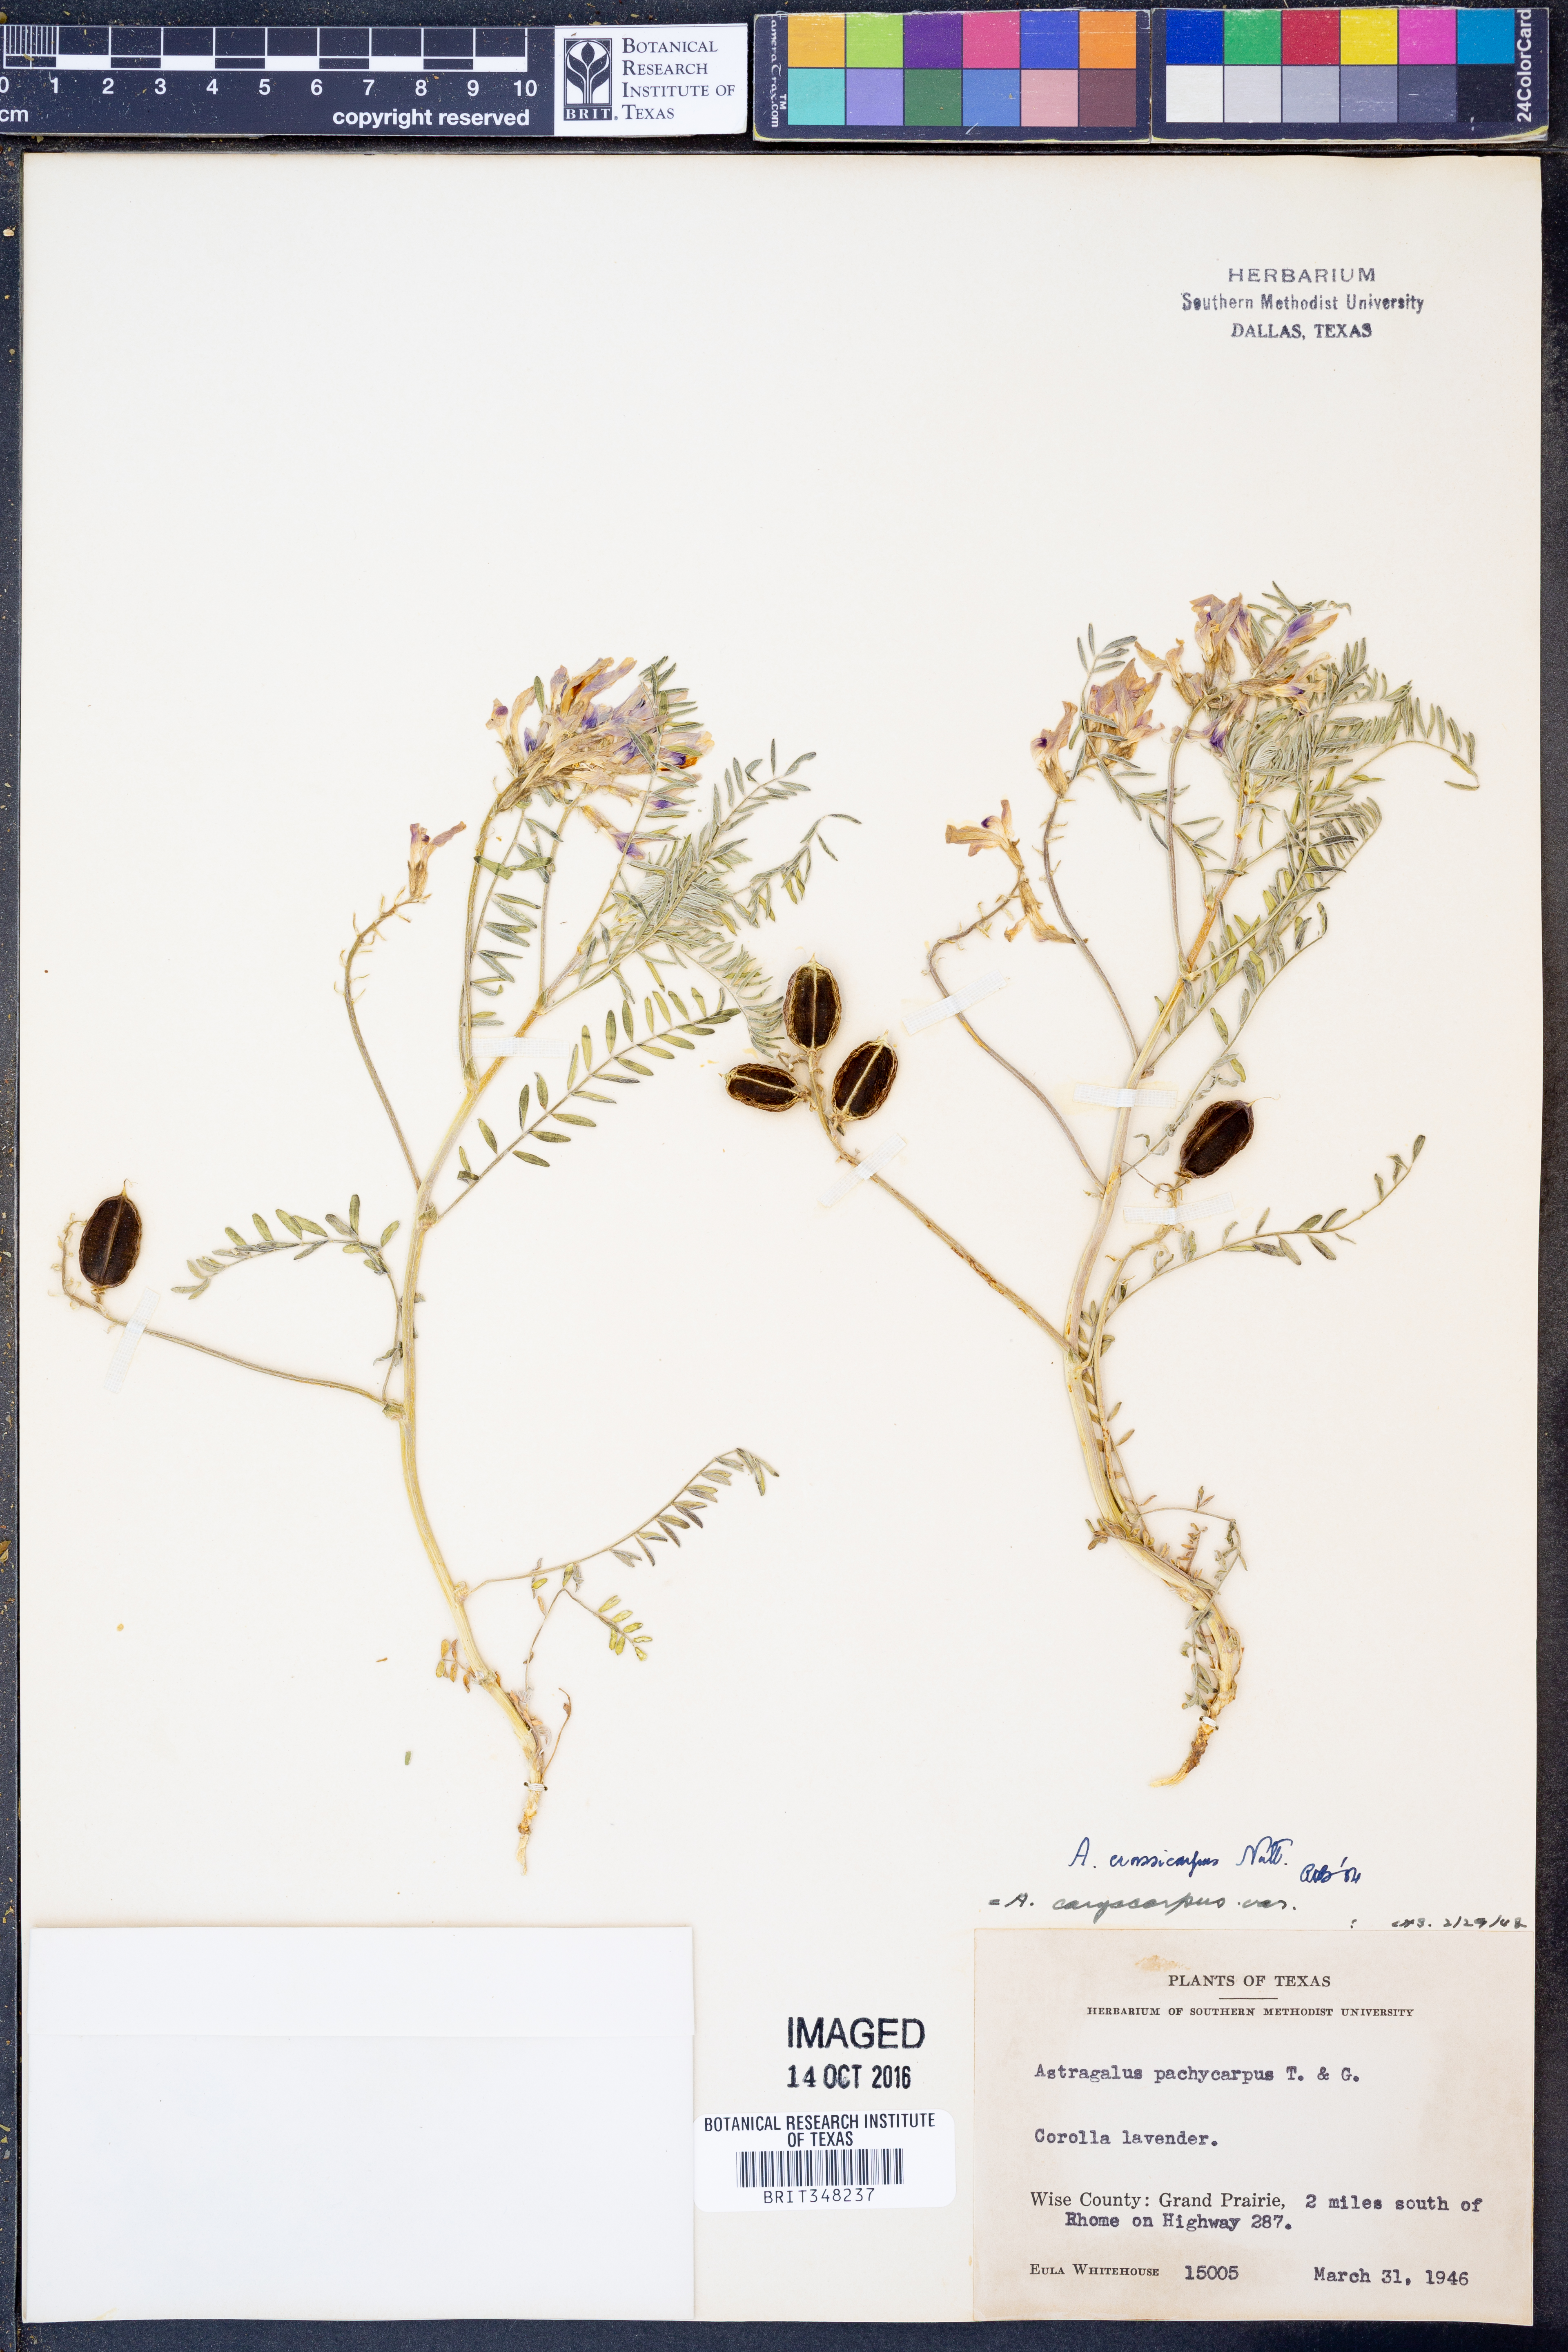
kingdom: Plantae
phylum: Tracheophyta
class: Magnoliopsida
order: Fabales
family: Fabaceae
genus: Astragalus
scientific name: Astragalus crassicarpus
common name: Ground-plum milk-vetch
